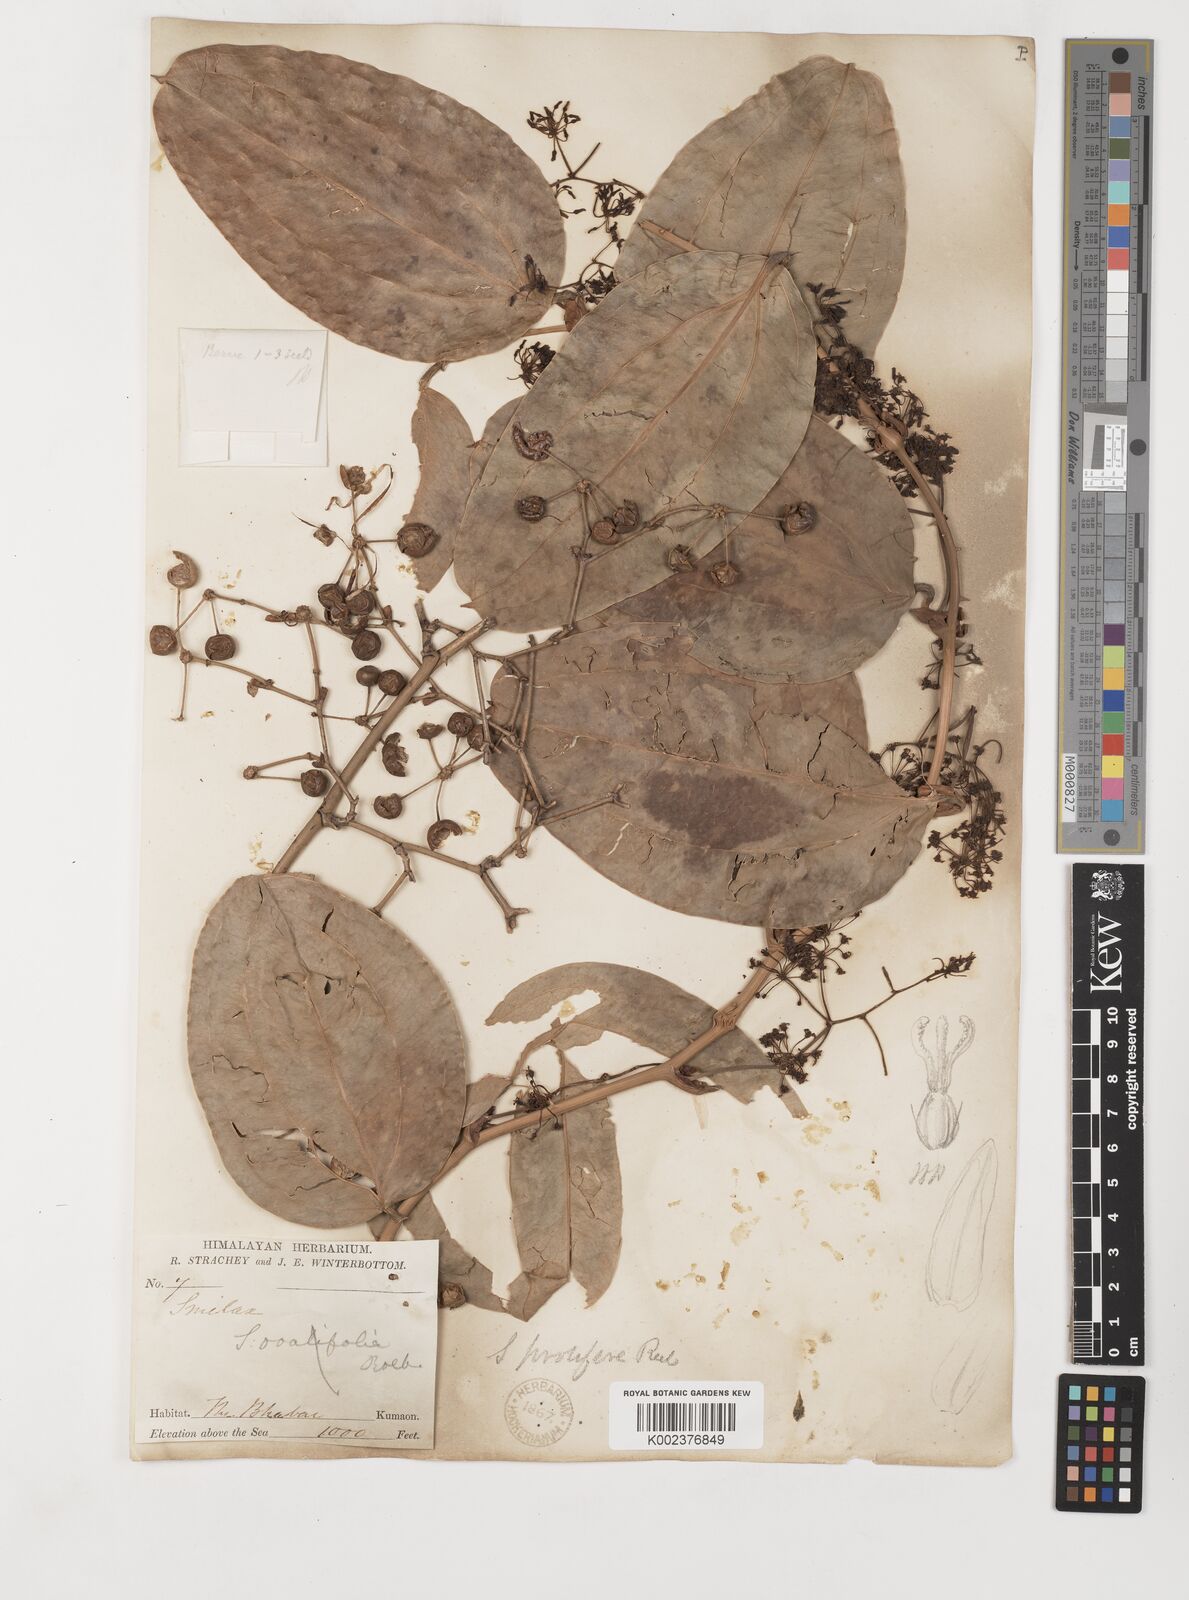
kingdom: Plantae
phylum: Tracheophyta
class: Liliopsida
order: Liliales
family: Smilacaceae
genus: Smilax
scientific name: Smilax prolifera
